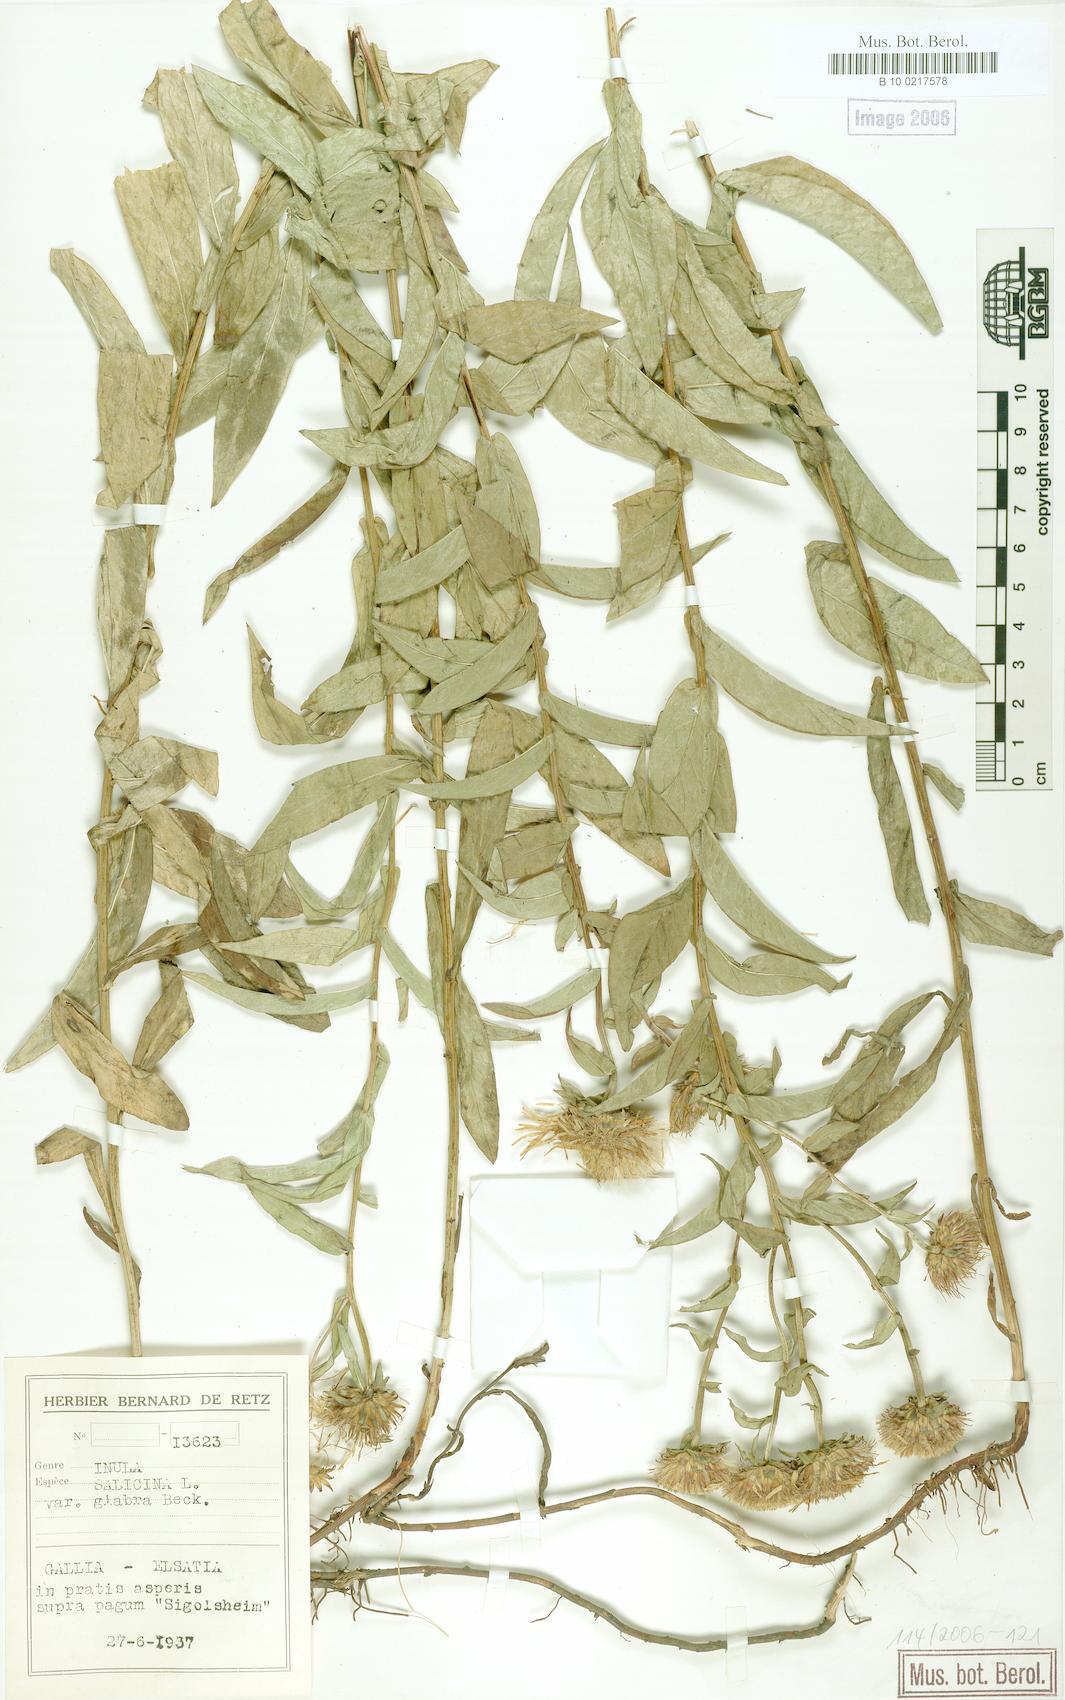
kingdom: Plantae
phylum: Tracheophyta
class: Magnoliopsida
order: Asterales
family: Asteraceae
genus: Pentanema
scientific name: Pentanema salicinum
